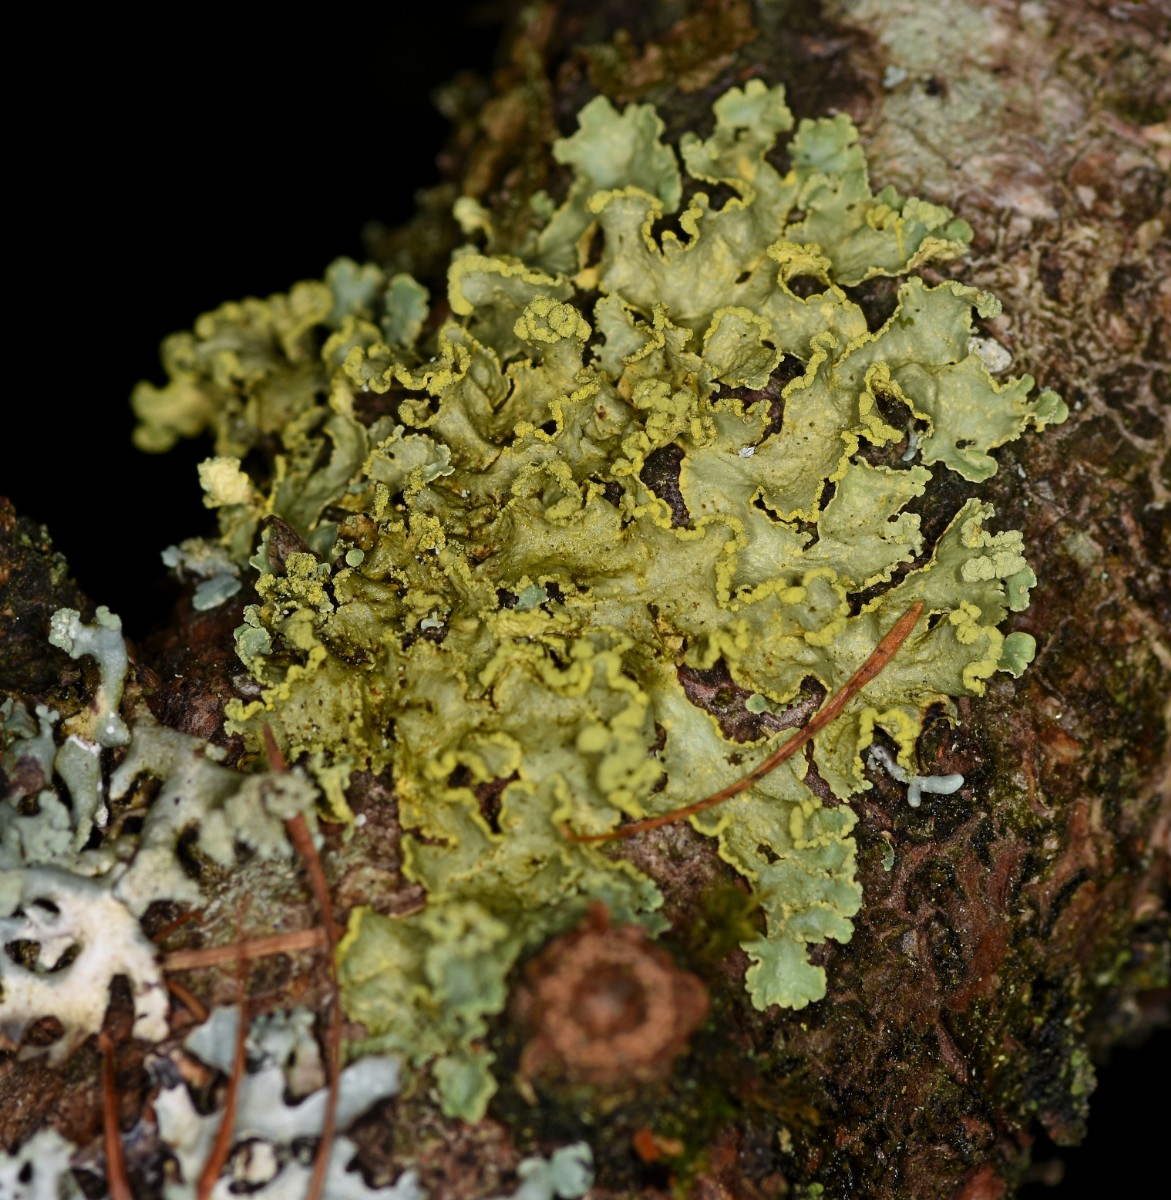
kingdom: Fungi
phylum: Ascomycota
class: Lecanoromycetes
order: Lecanorales
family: Parmeliaceae
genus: Vulpicida
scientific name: Vulpicida pinastri
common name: gul kruslav
